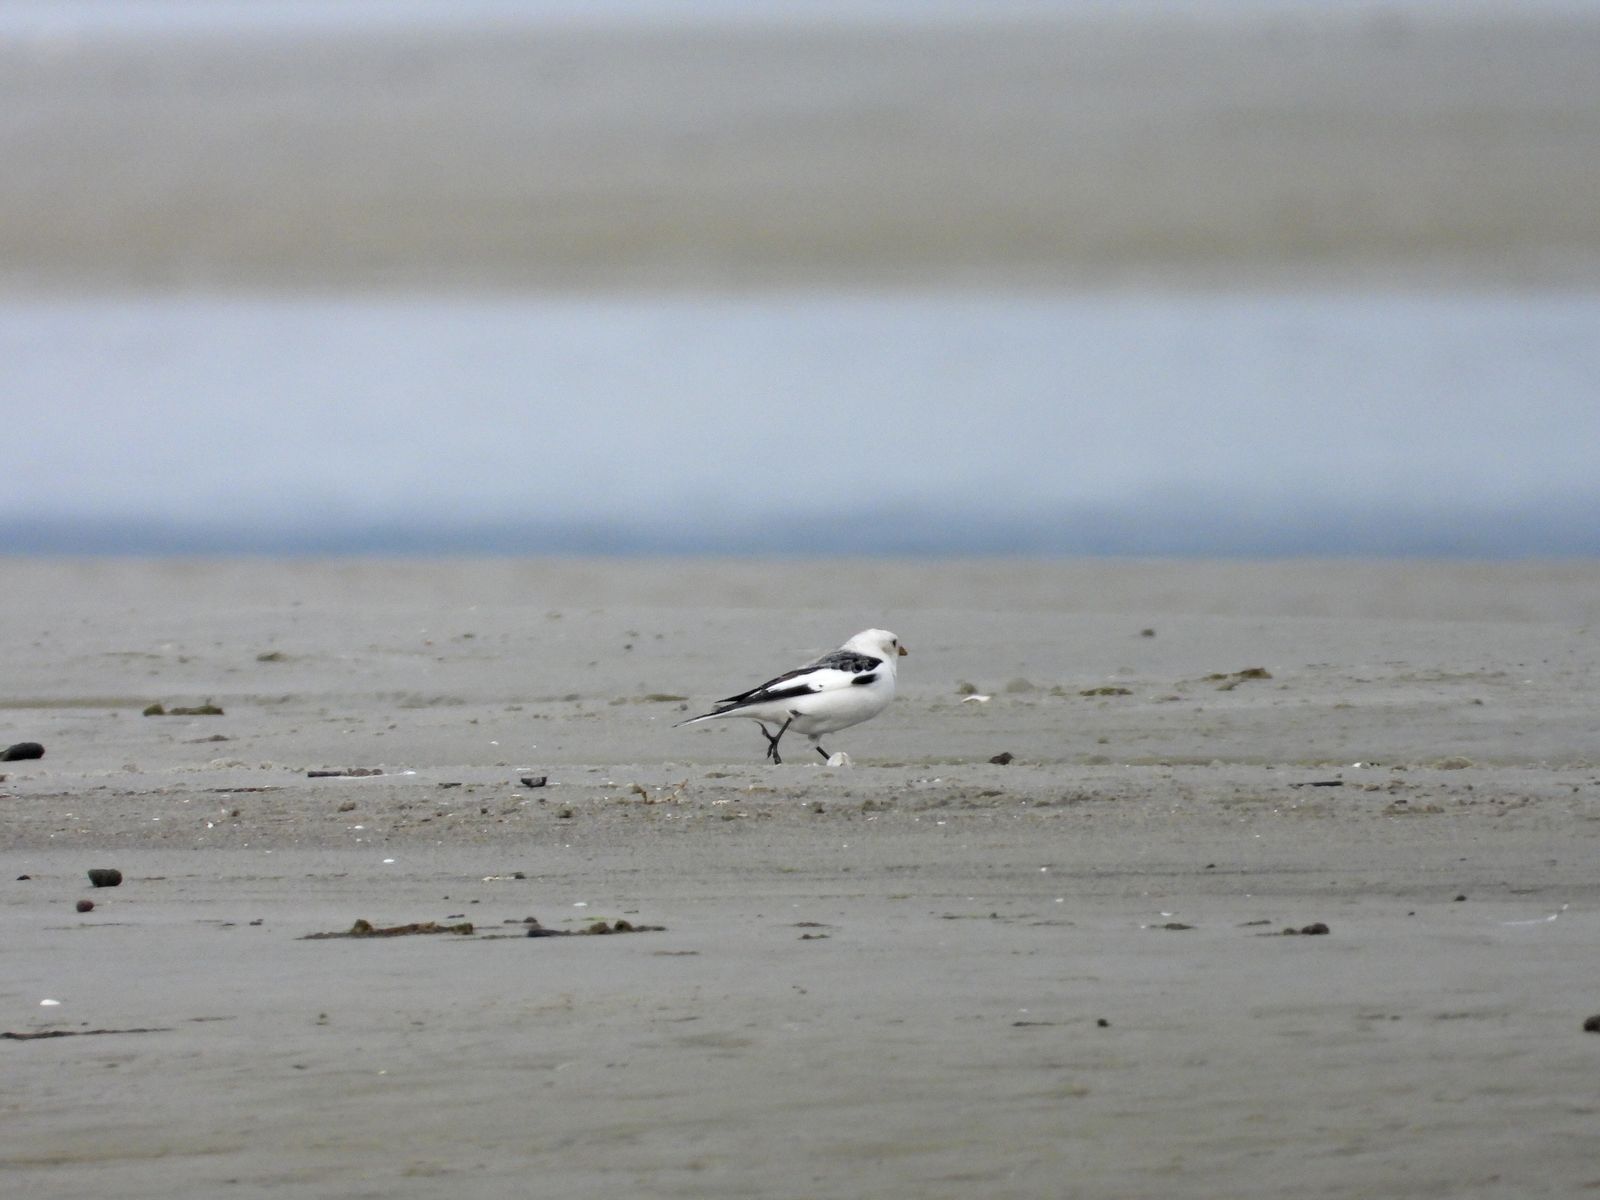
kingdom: Animalia
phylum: Chordata
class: Aves
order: Passeriformes
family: Calcariidae
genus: Plectrophenax
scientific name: Plectrophenax nivalis
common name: Snow bunting
